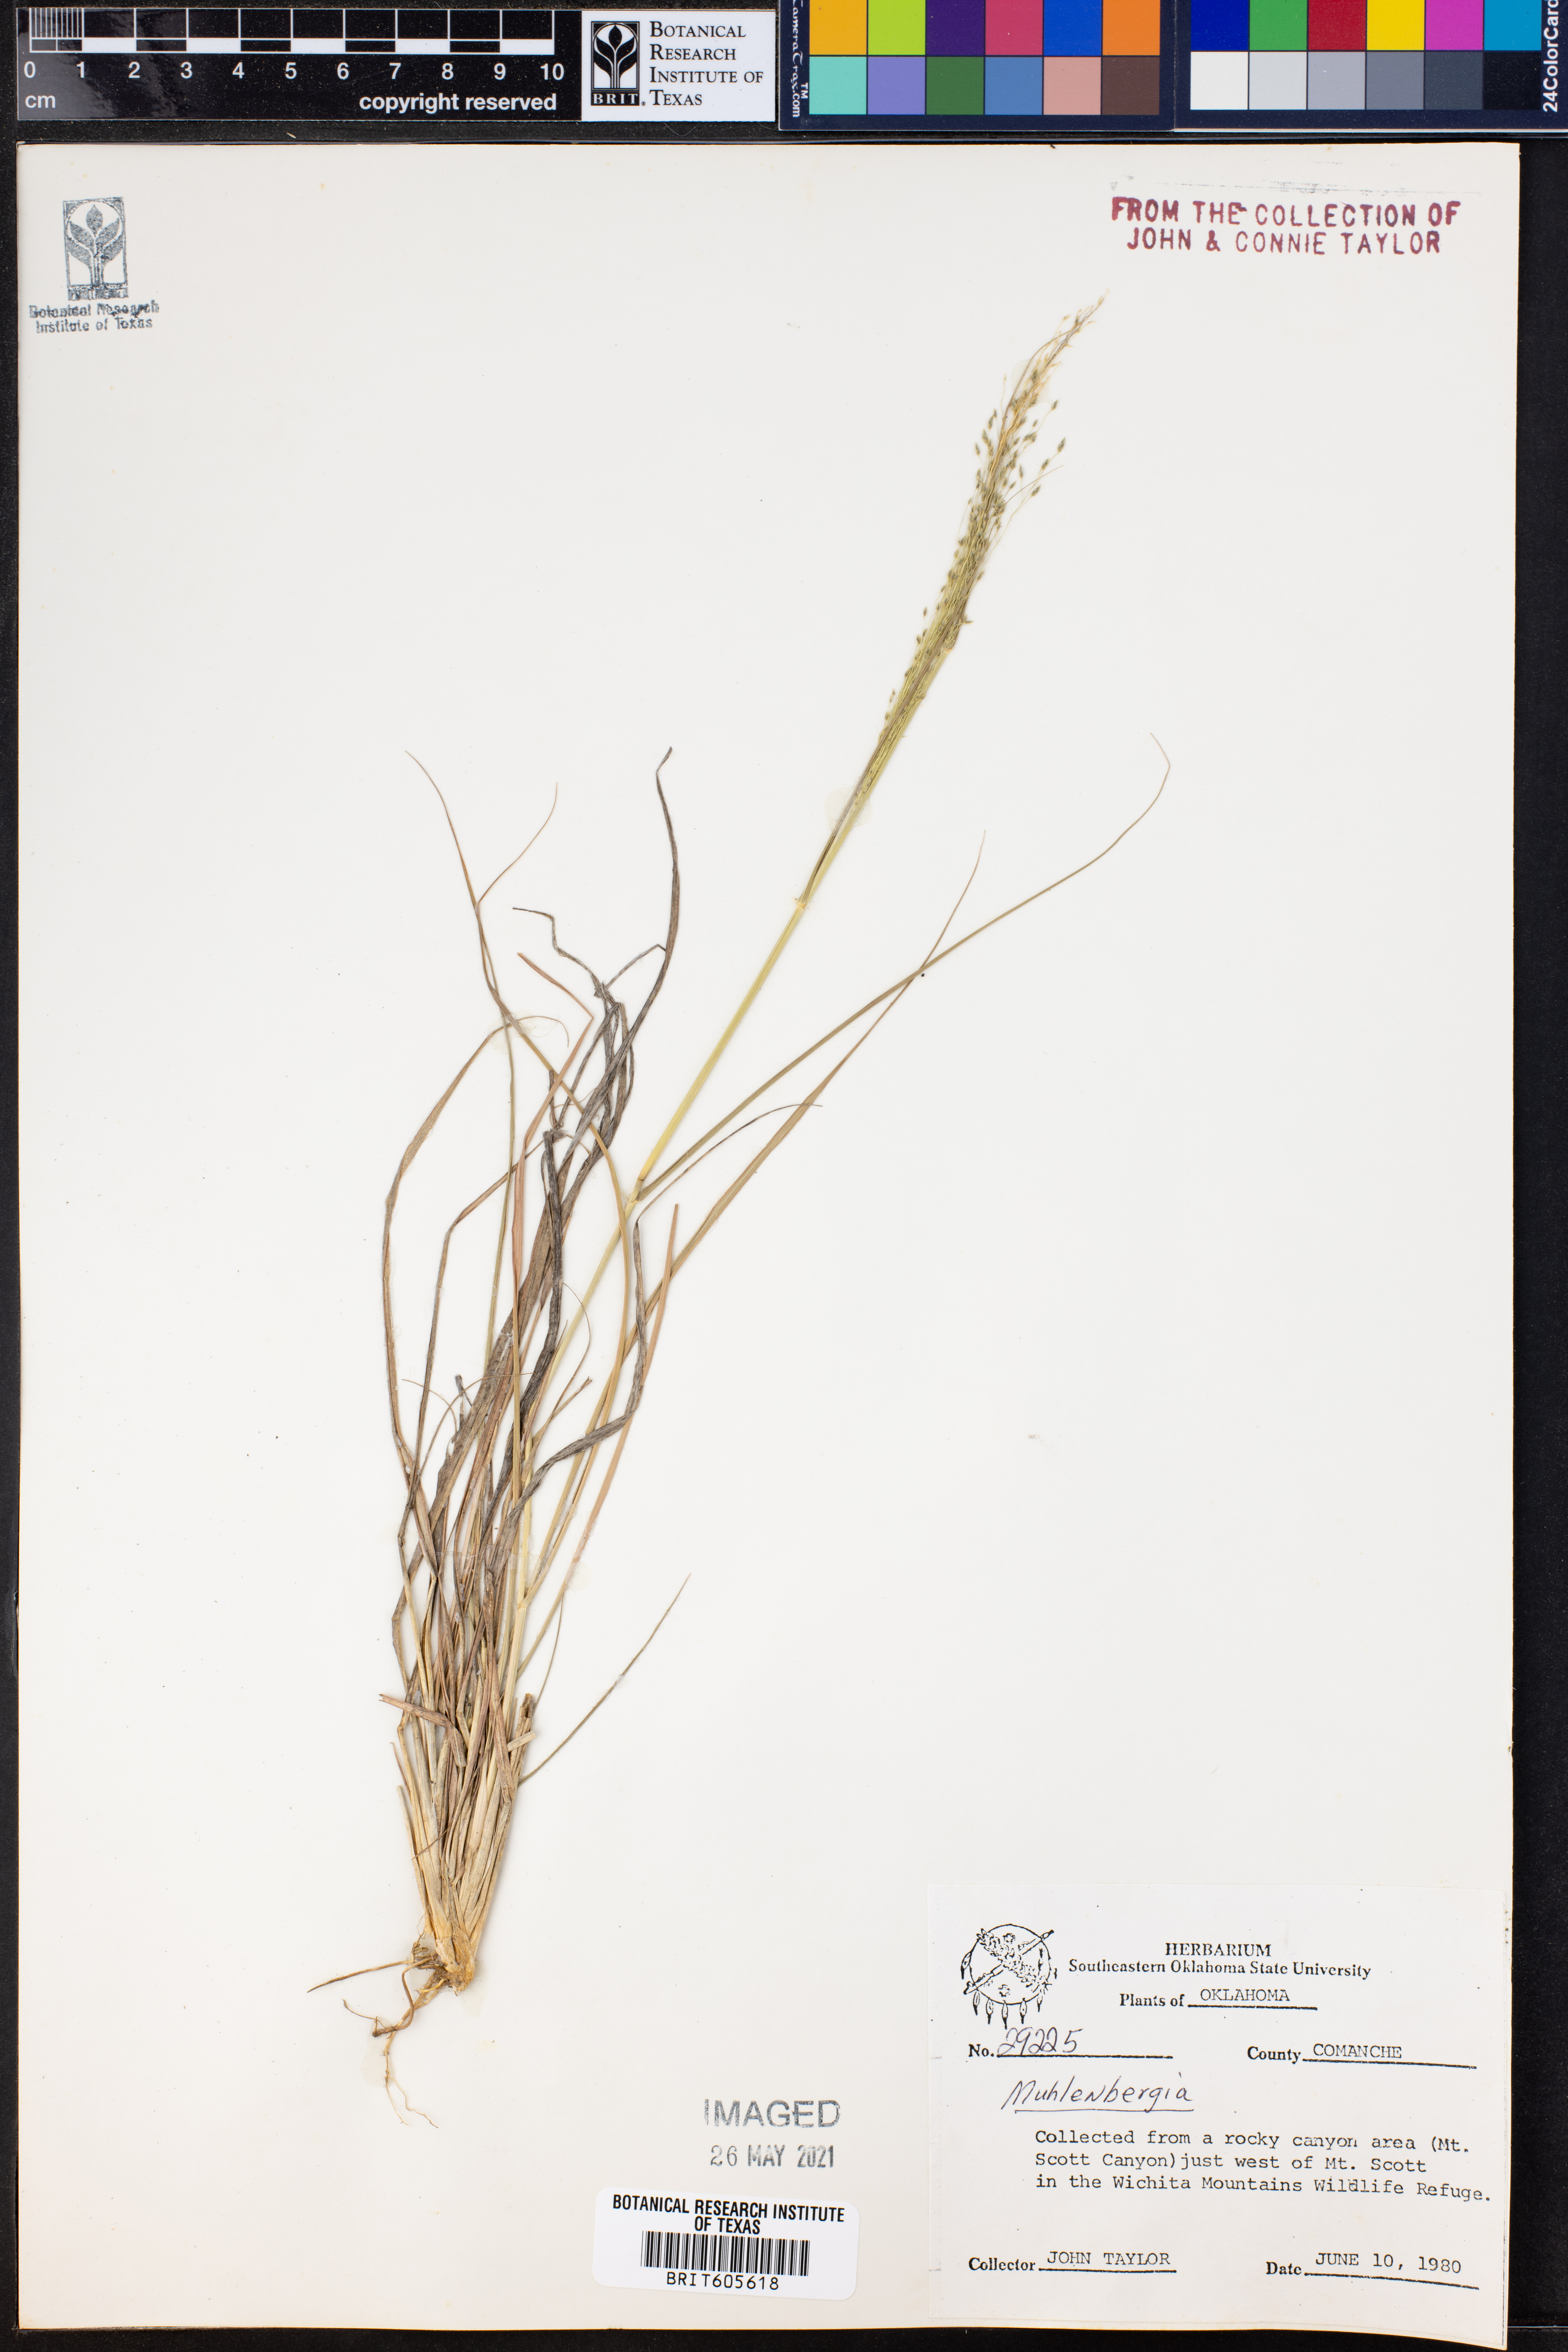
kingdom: Plantae
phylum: Tracheophyta
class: Liliopsida
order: Poales
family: Poaceae
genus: Muhlenbergia
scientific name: Muhlenbergia
